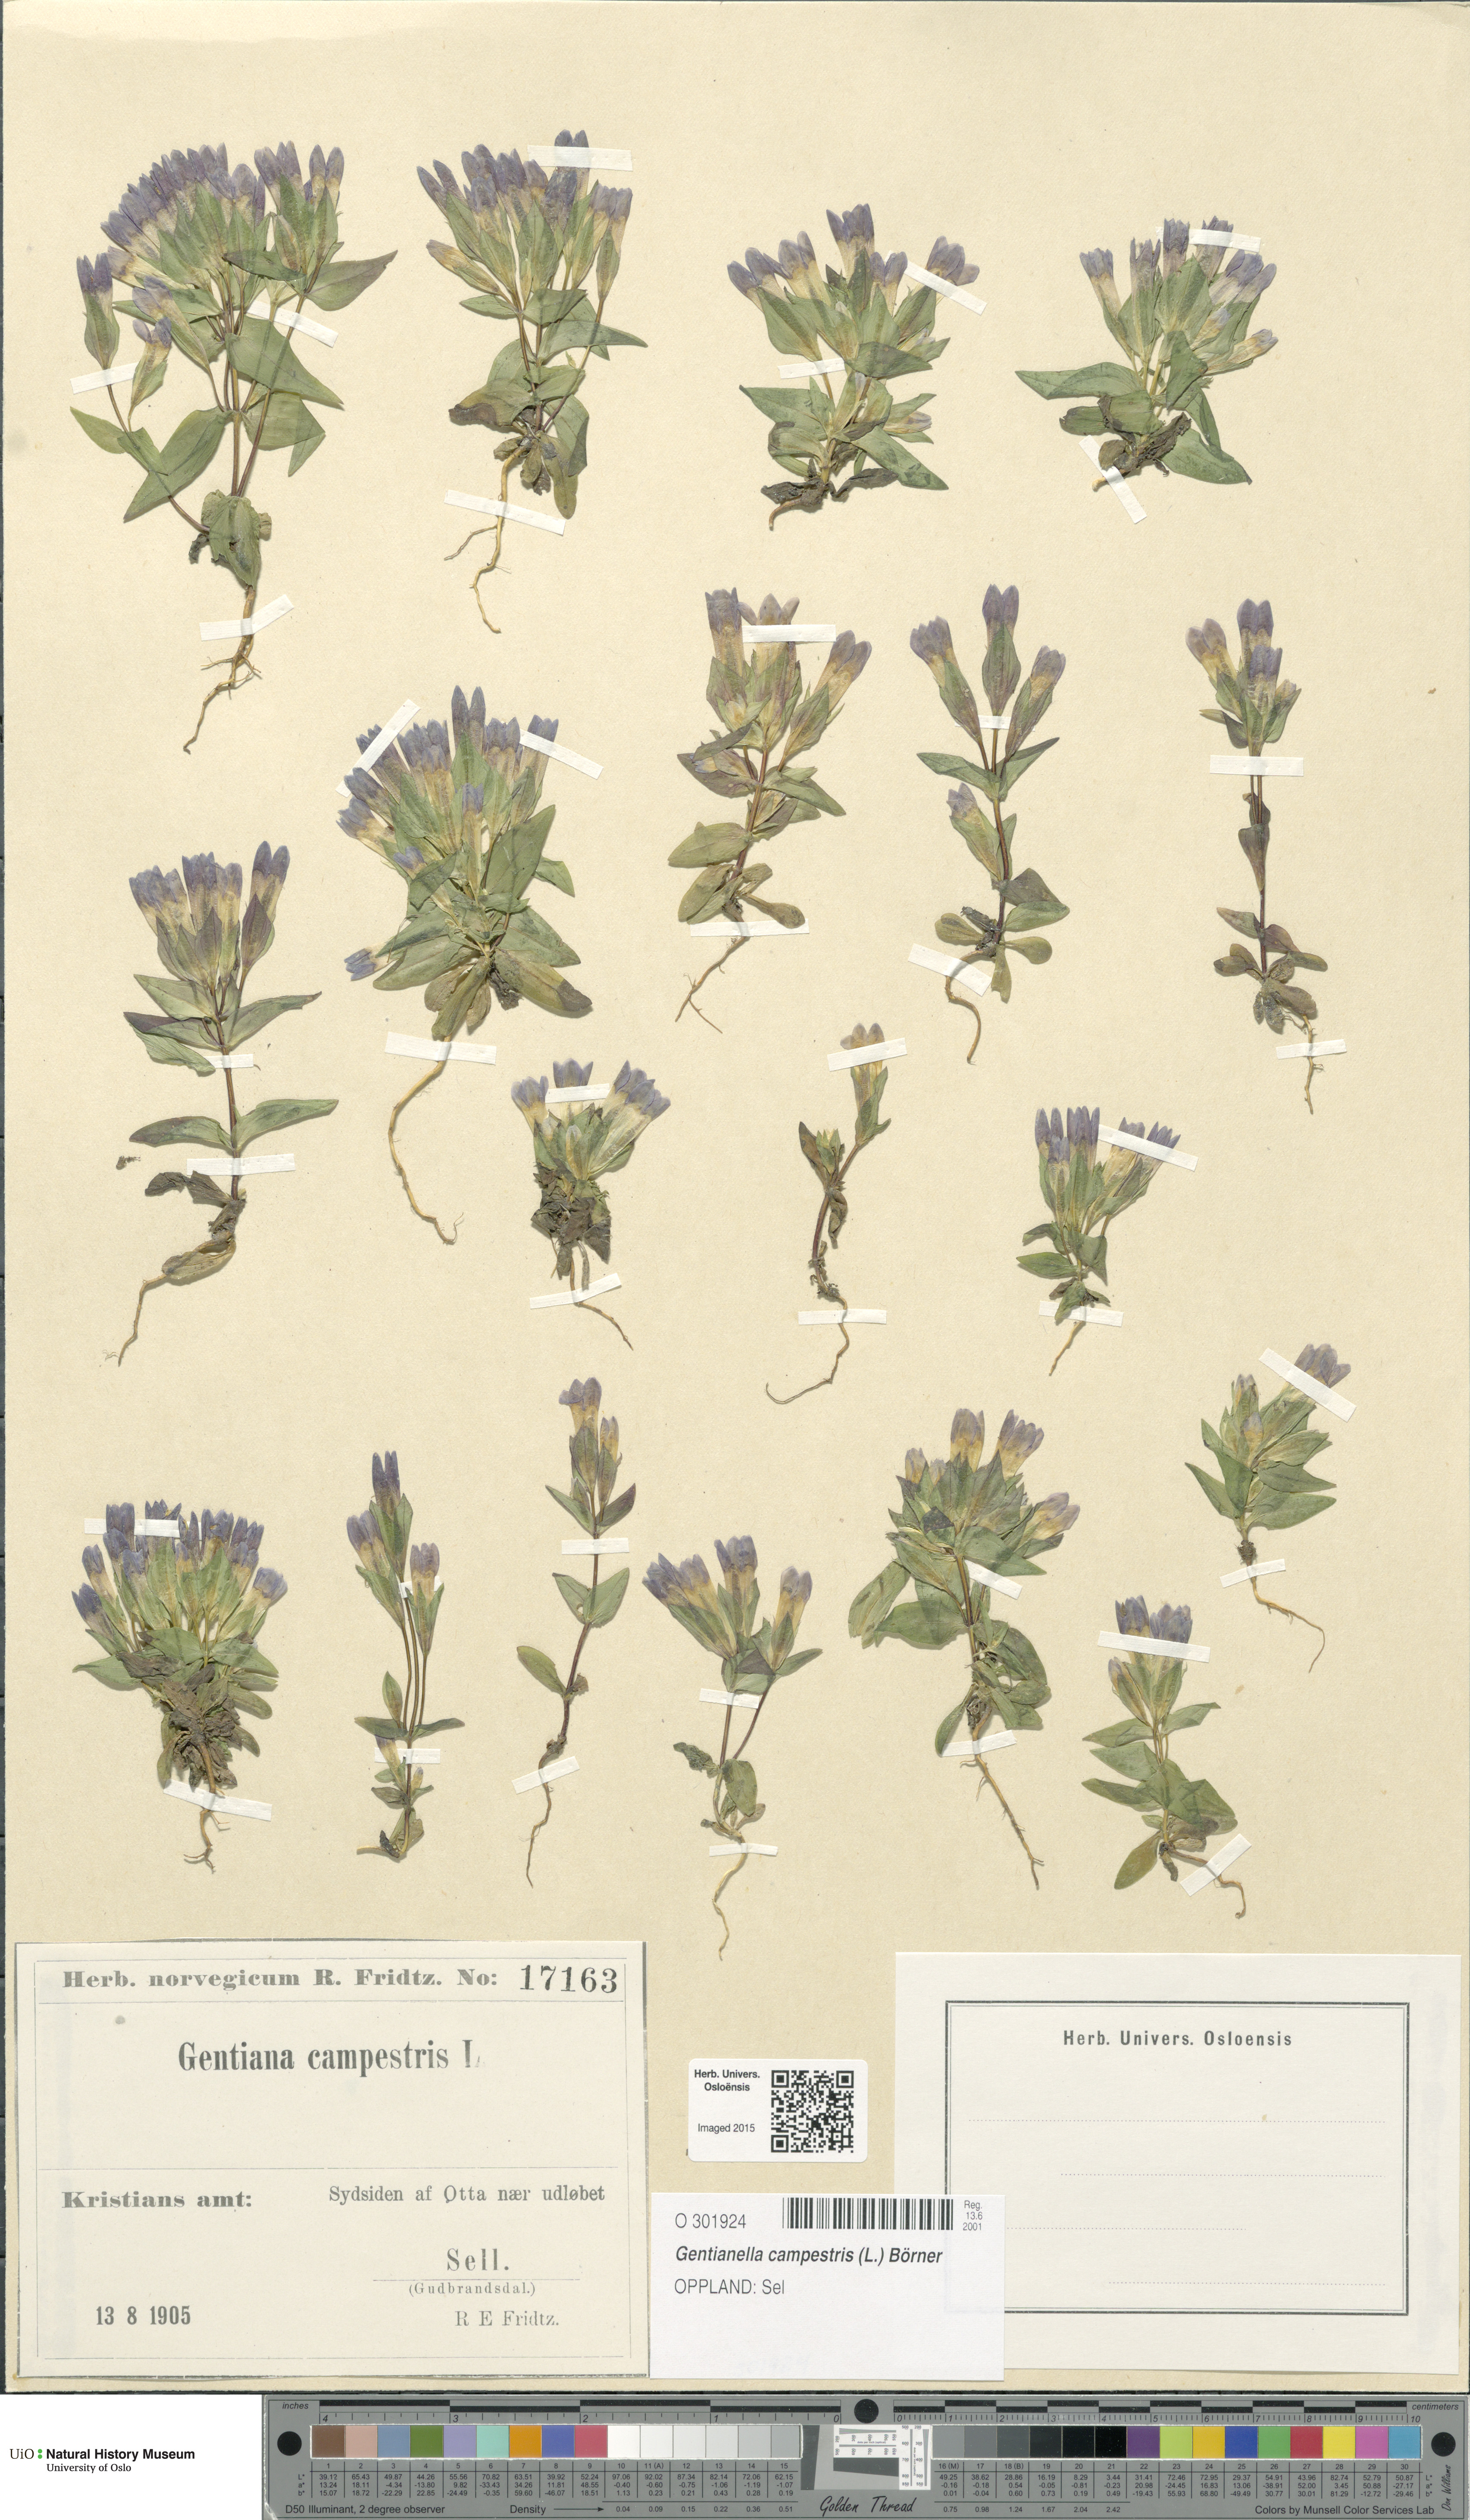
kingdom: Plantae
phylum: Tracheophyta
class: Magnoliopsida
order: Gentianales
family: Gentianaceae
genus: Gentianella
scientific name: Gentianella campestris
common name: Field gentian
